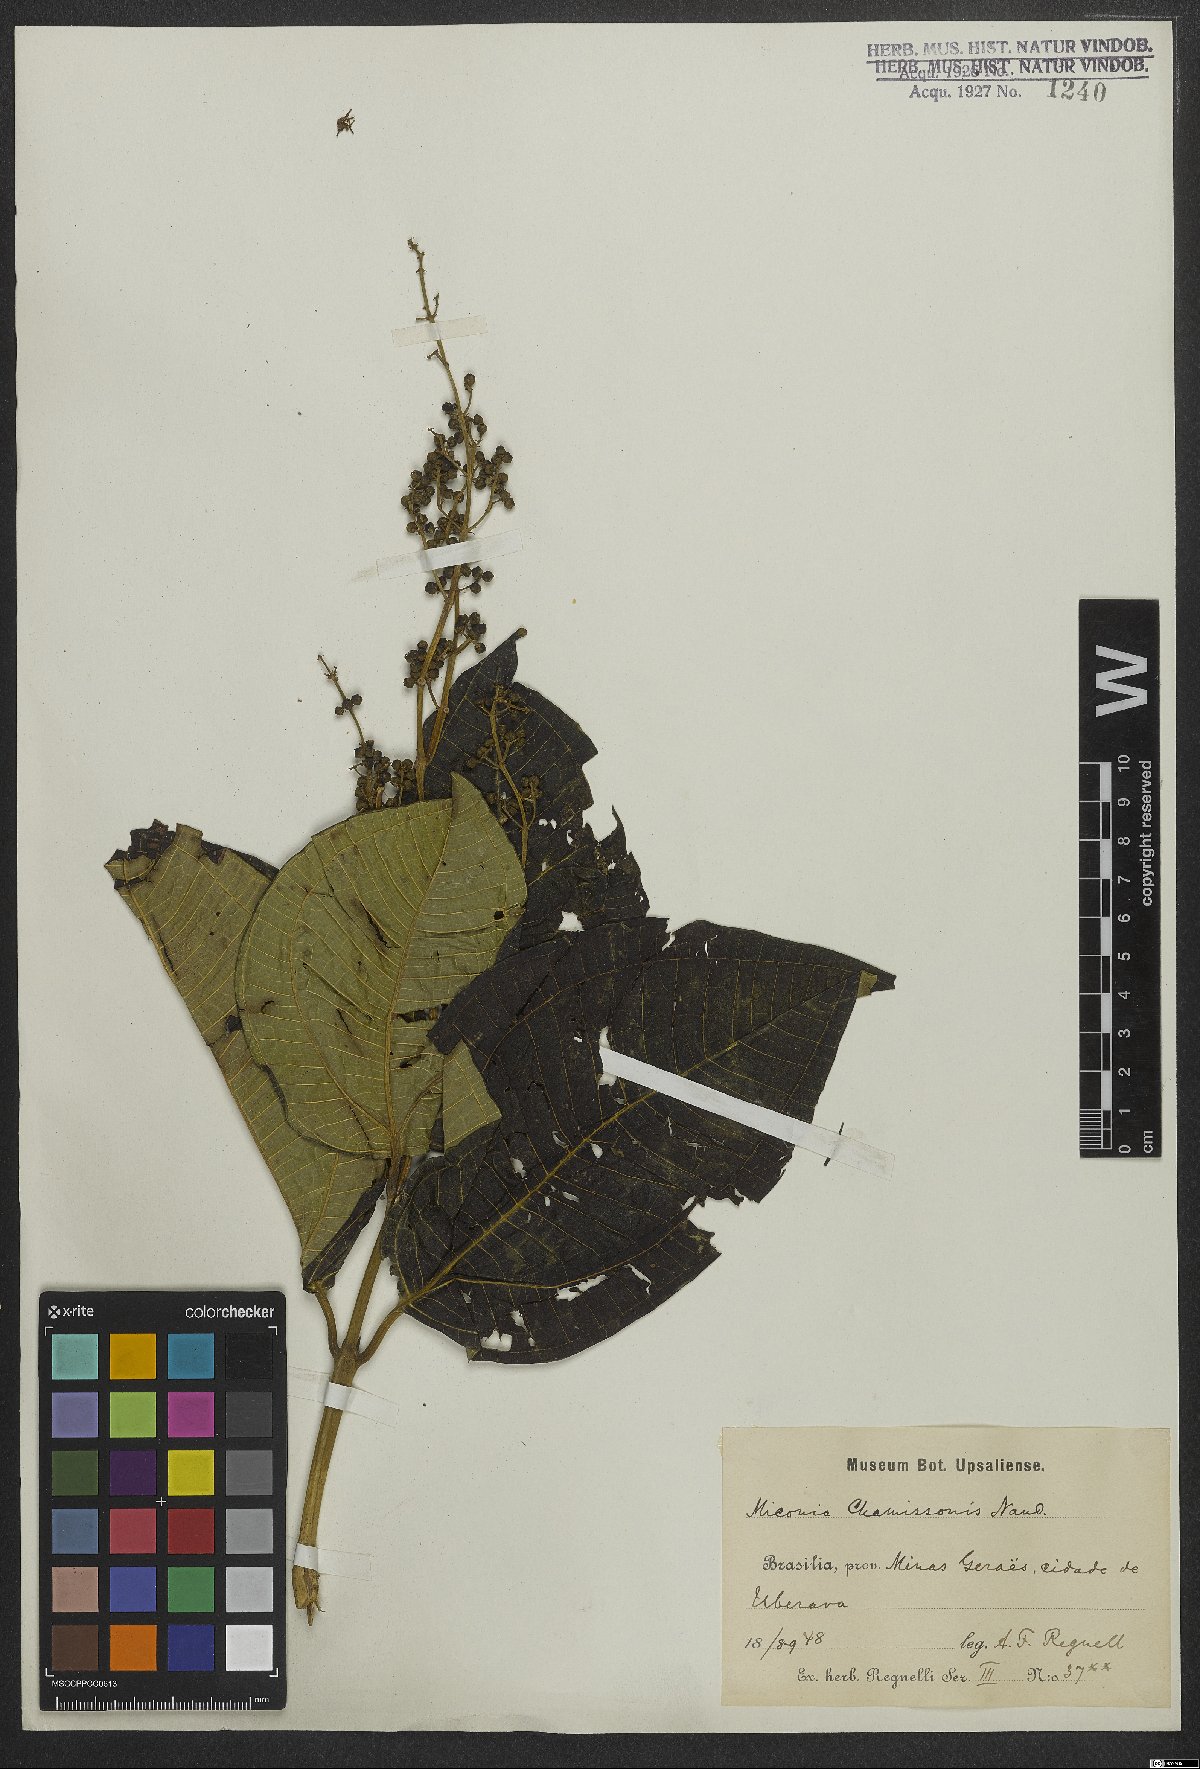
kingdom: Plantae
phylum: Tracheophyta
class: Magnoliopsida
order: Myrtales
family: Melastomataceae
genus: Miconia
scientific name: Miconia chamissois
